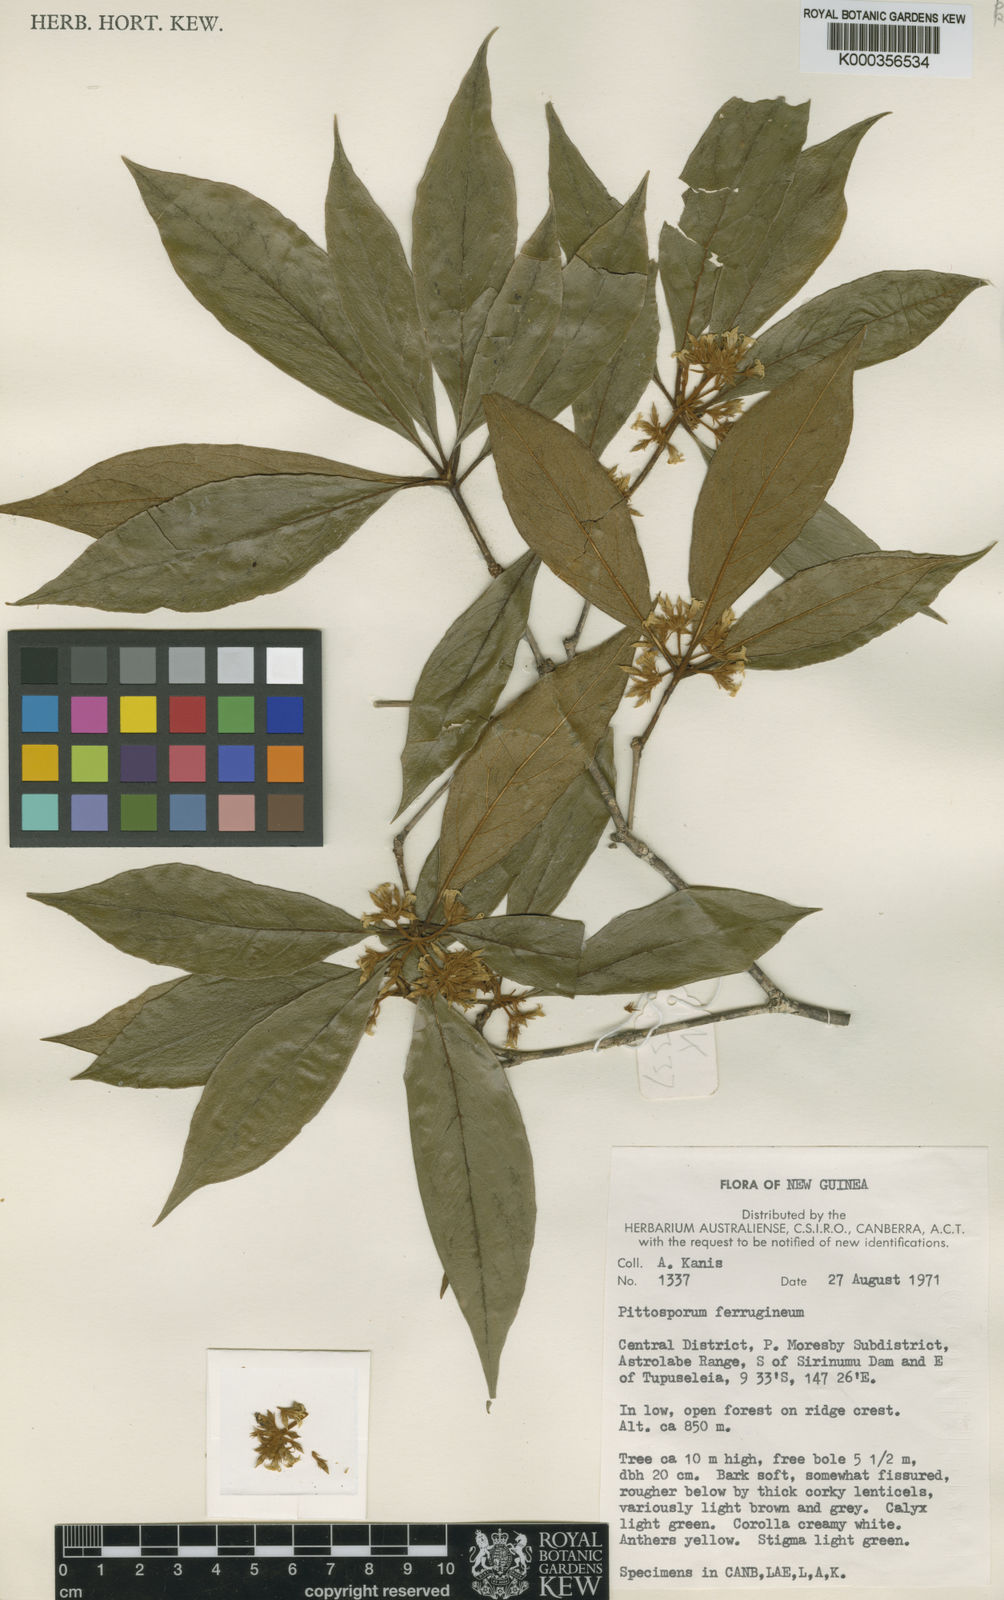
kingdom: Plantae
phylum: Tracheophyta
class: Magnoliopsida
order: Apiales
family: Pittosporaceae
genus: Pittosporum
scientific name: Pittosporum ferrugineum
